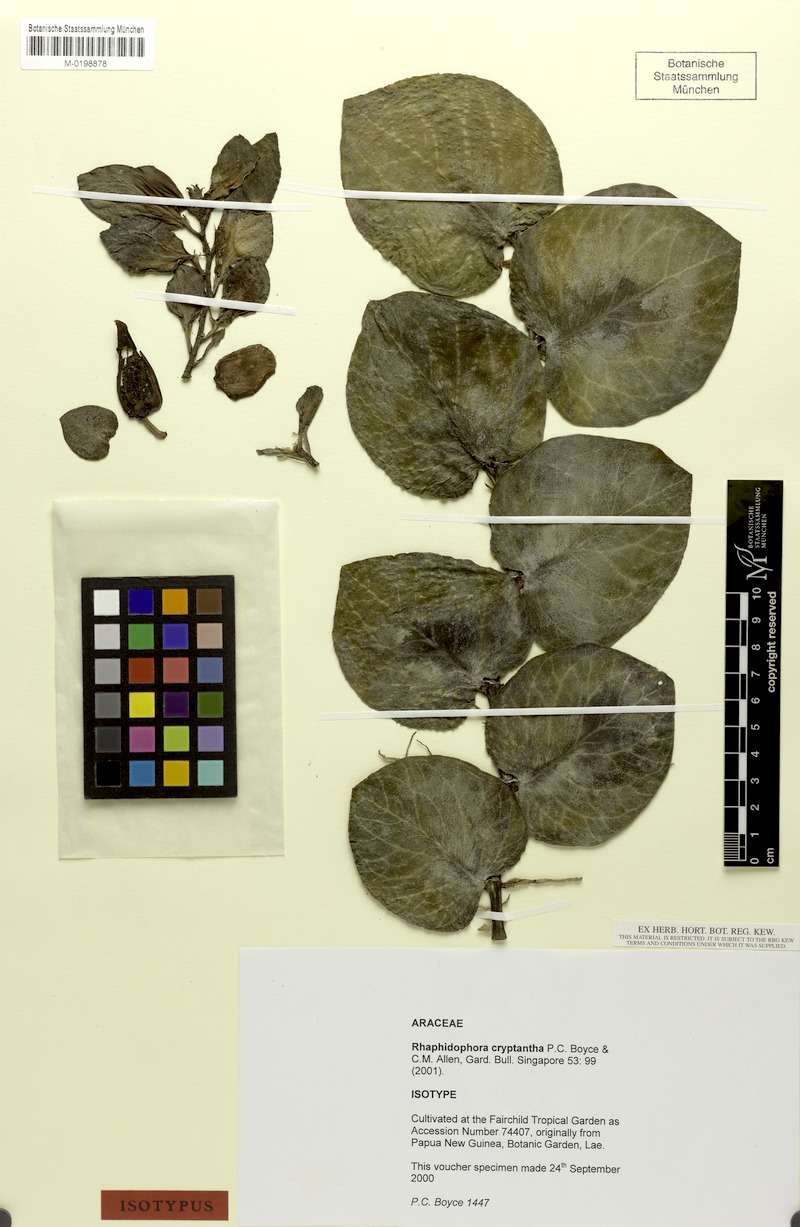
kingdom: Plantae
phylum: Tracheophyta
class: Liliopsida
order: Alismatales
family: Araceae
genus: Rhaphidophora
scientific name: Rhaphidophora cryptantha
